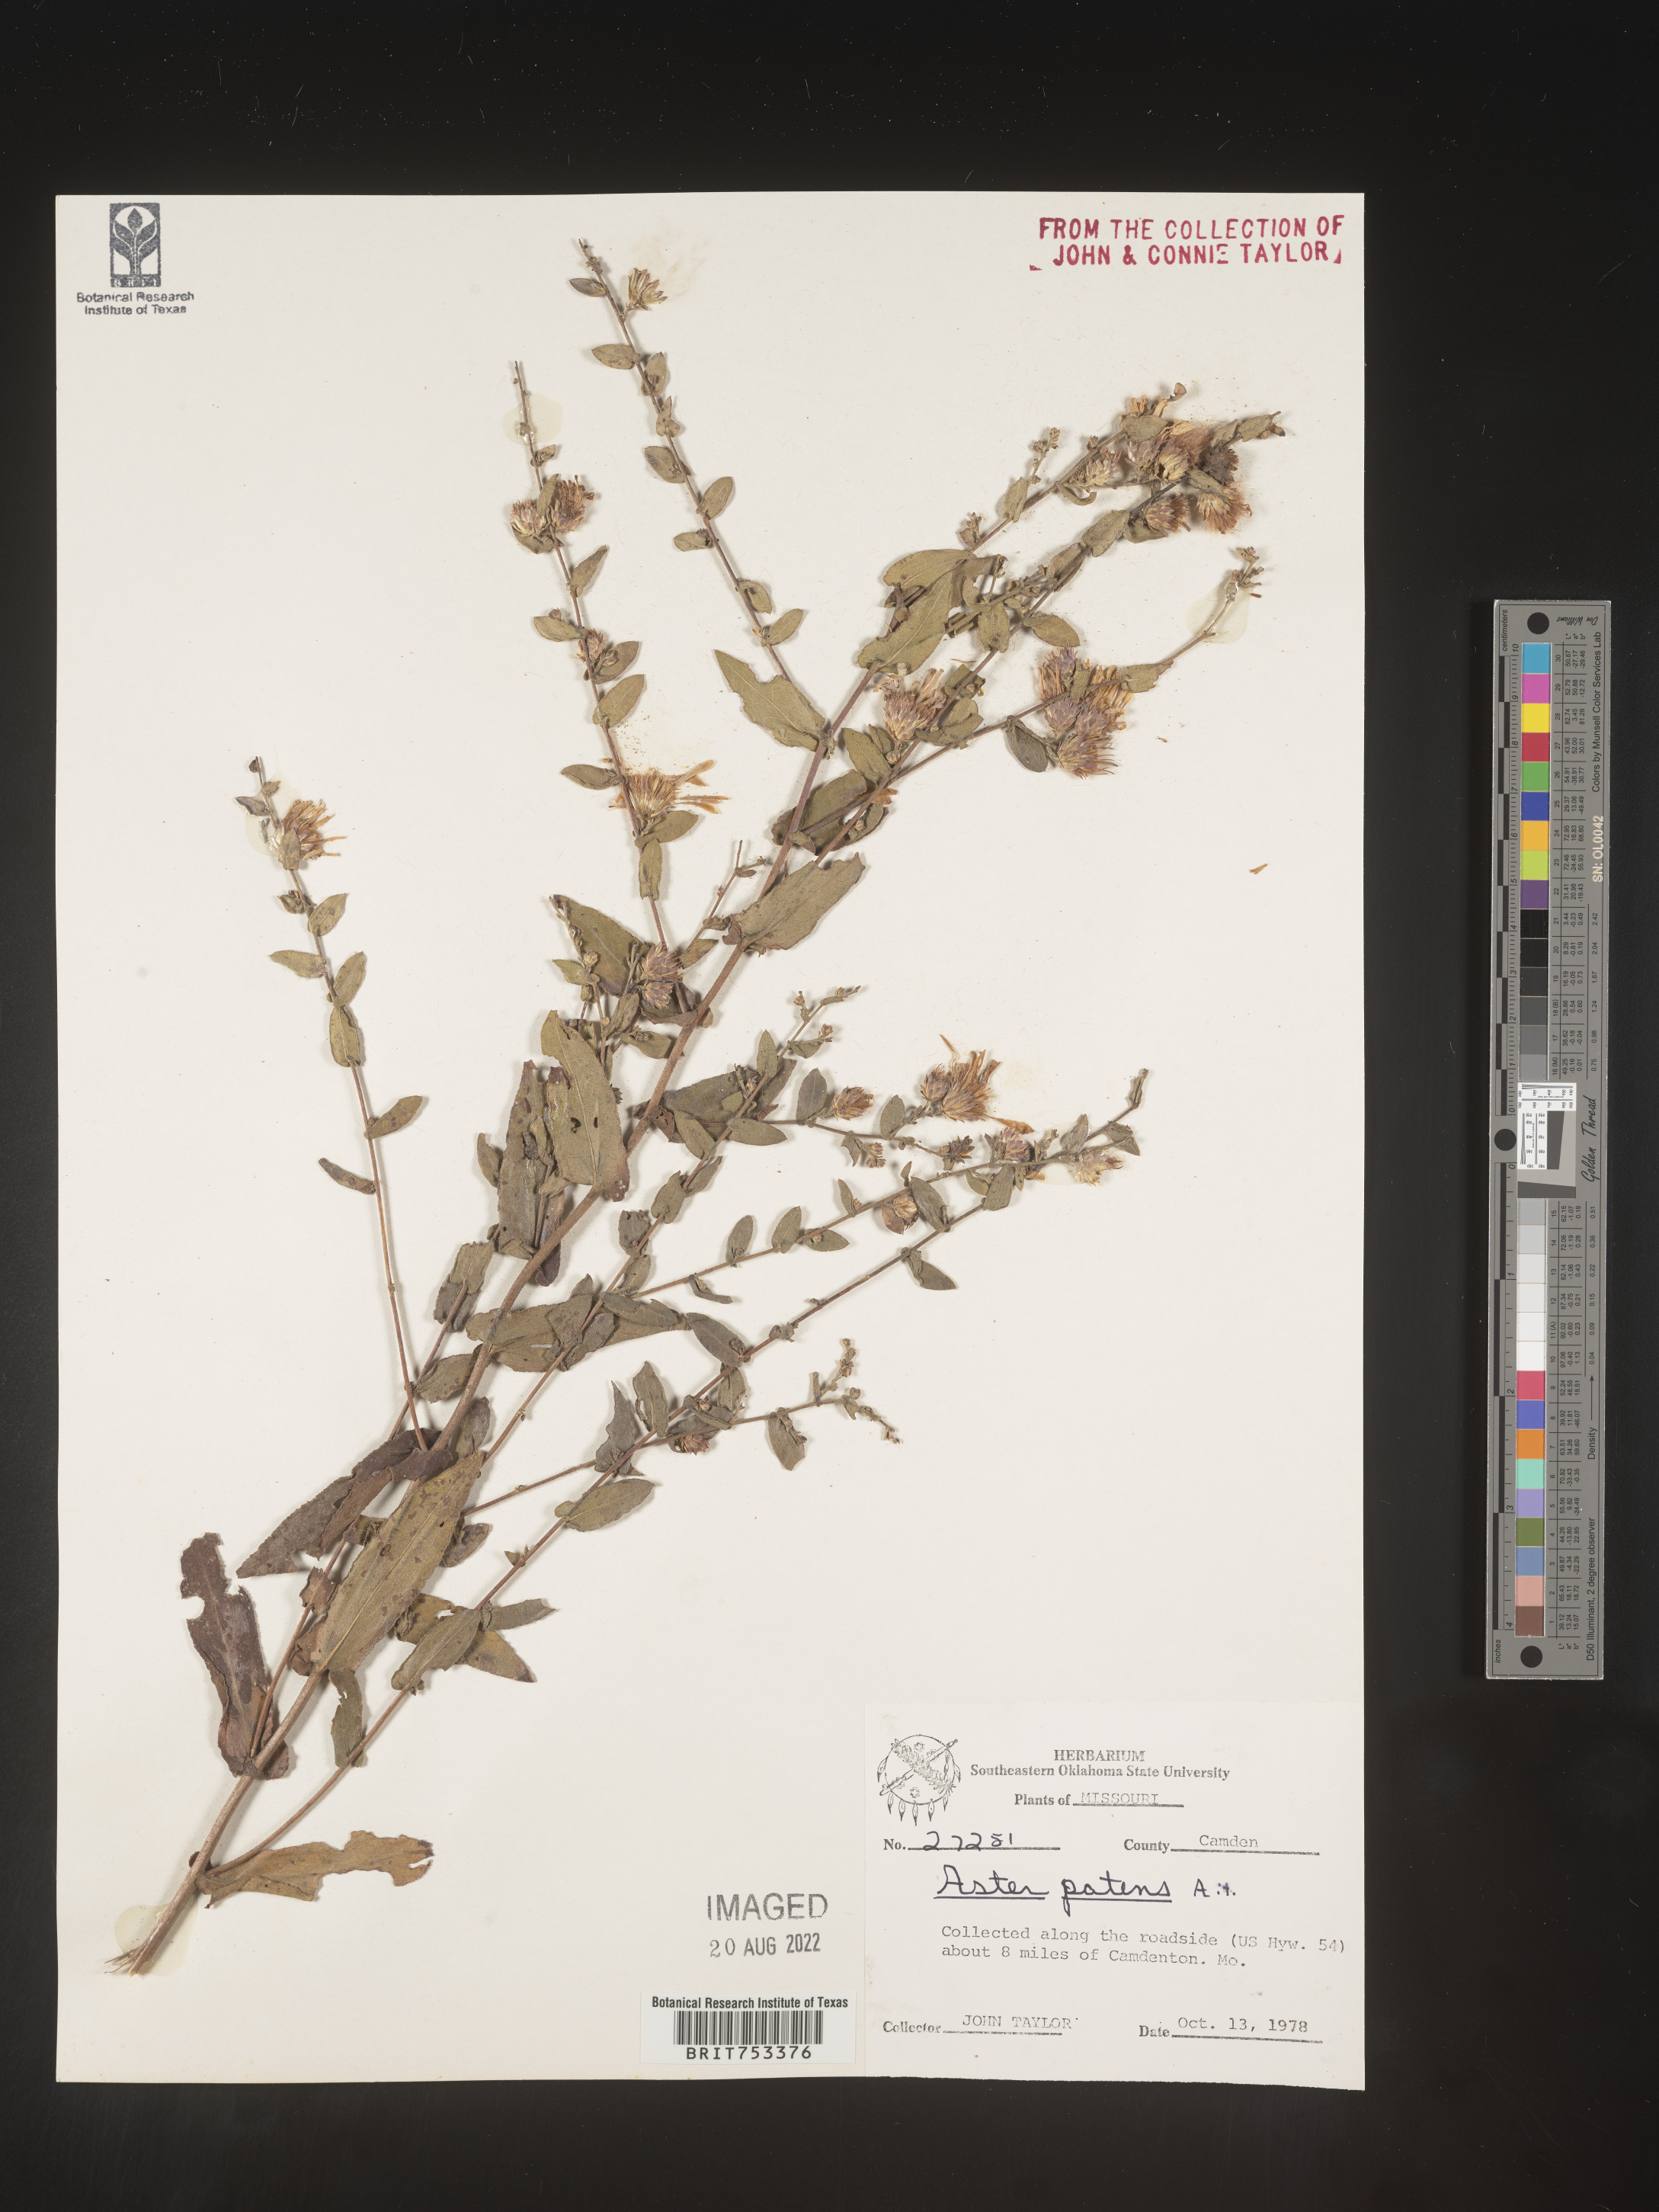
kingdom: Plantae
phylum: Tracheophyta
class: Magnoliopsida
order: Asterales
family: Asteraceae
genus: Symphyotrichum
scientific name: Symphyotrichum patens
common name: Late purple aster
